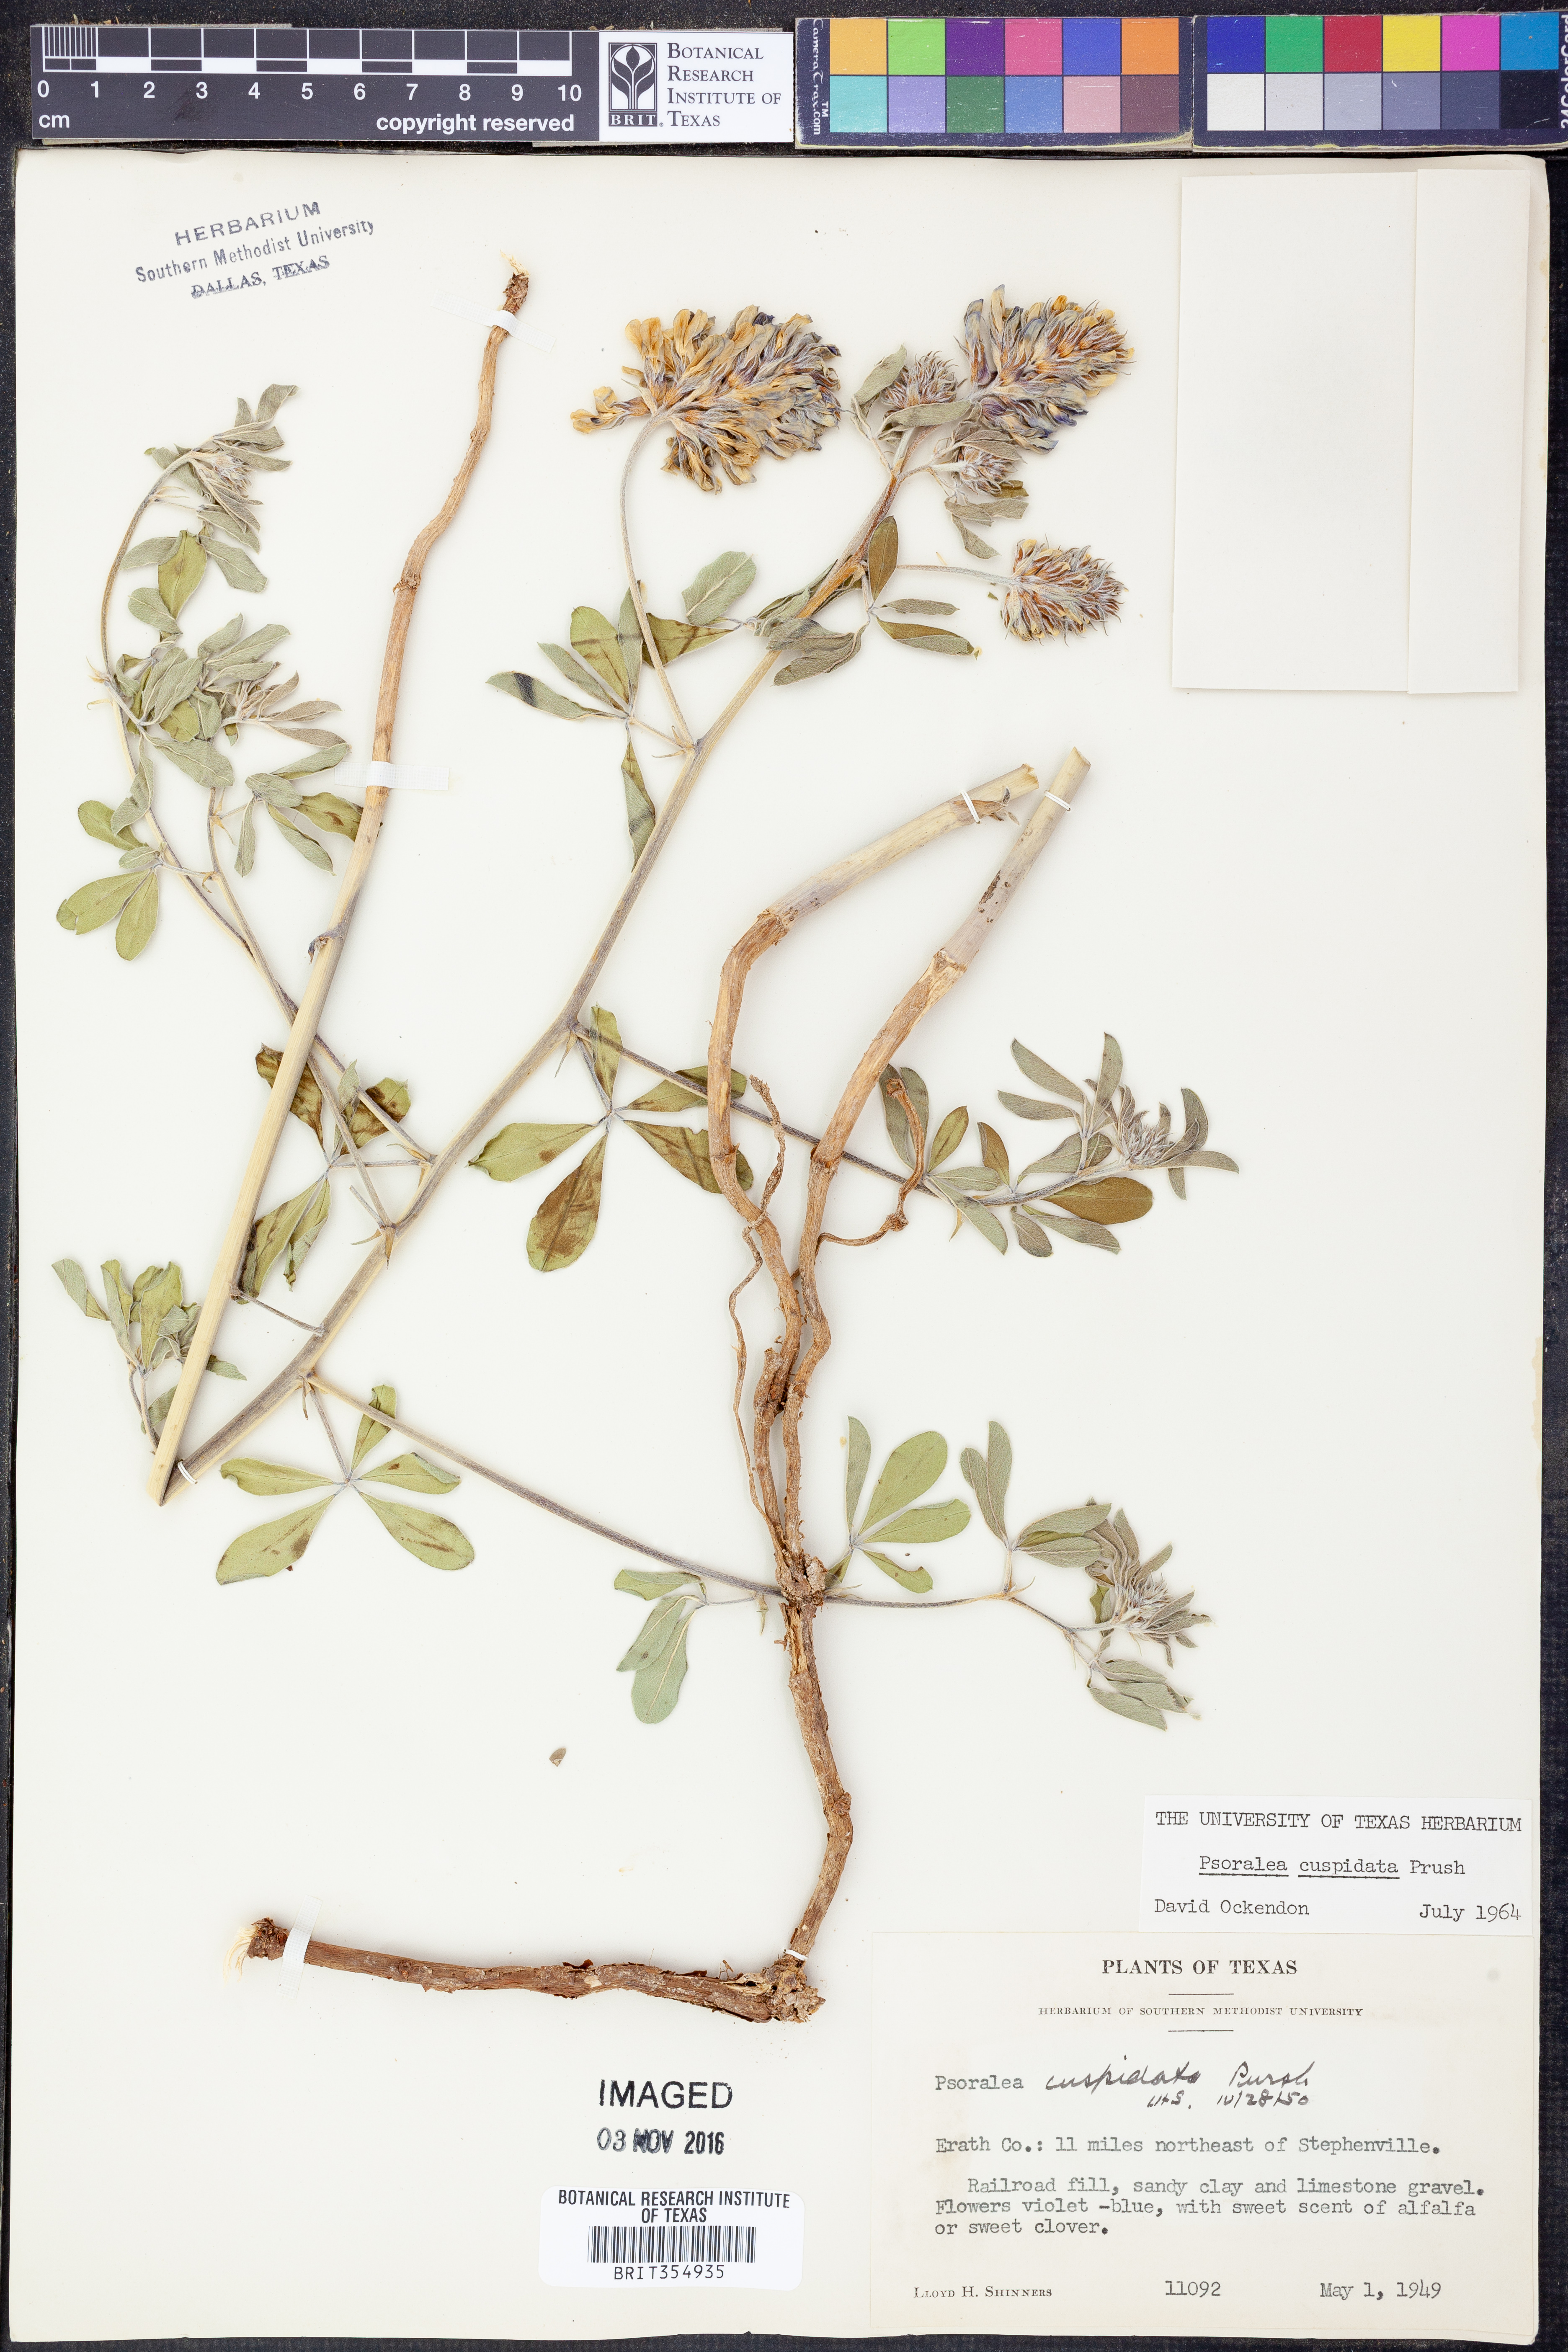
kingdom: Plantae
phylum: Tracheophyta
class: Magnoliopsida
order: Fabales
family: Fabaceae
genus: Pediomelum
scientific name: Pediomelum cuspidatum
